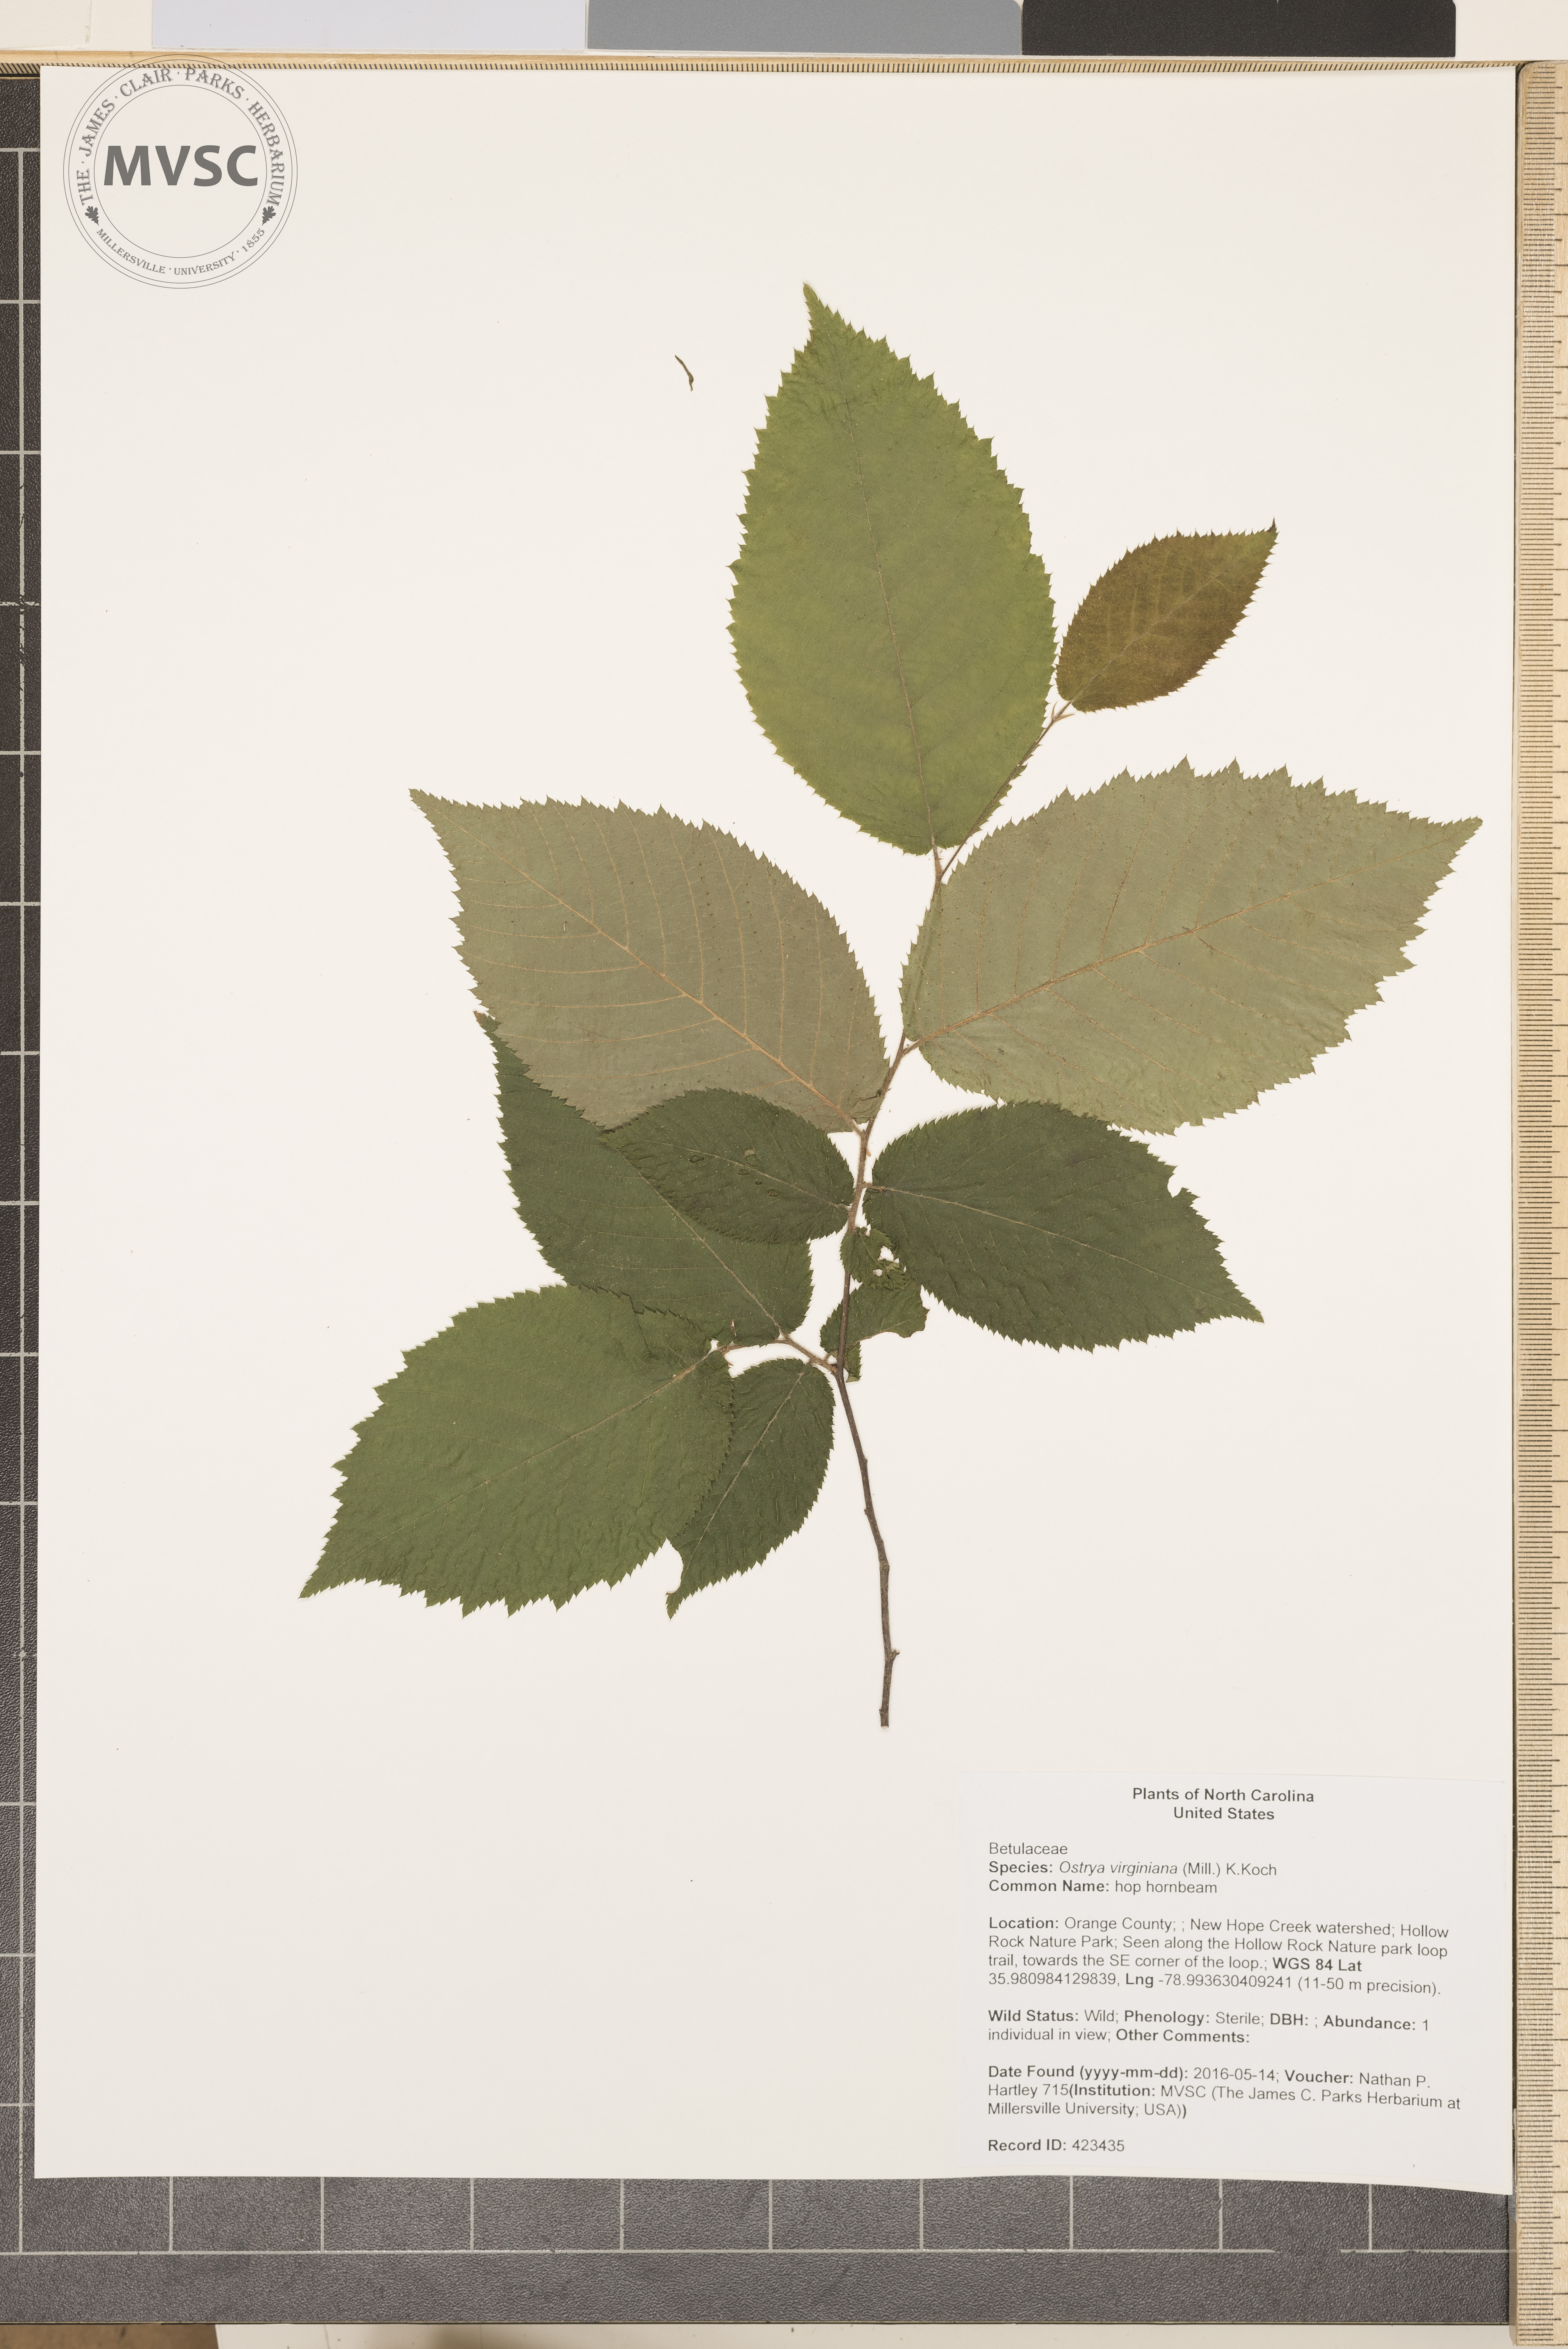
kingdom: Plantae
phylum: Tracheophyta
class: Magnoliopsida
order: Fagales
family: Betulaceae
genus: Ostrya
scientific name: Ostrya virginiana
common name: hop hornbeam
